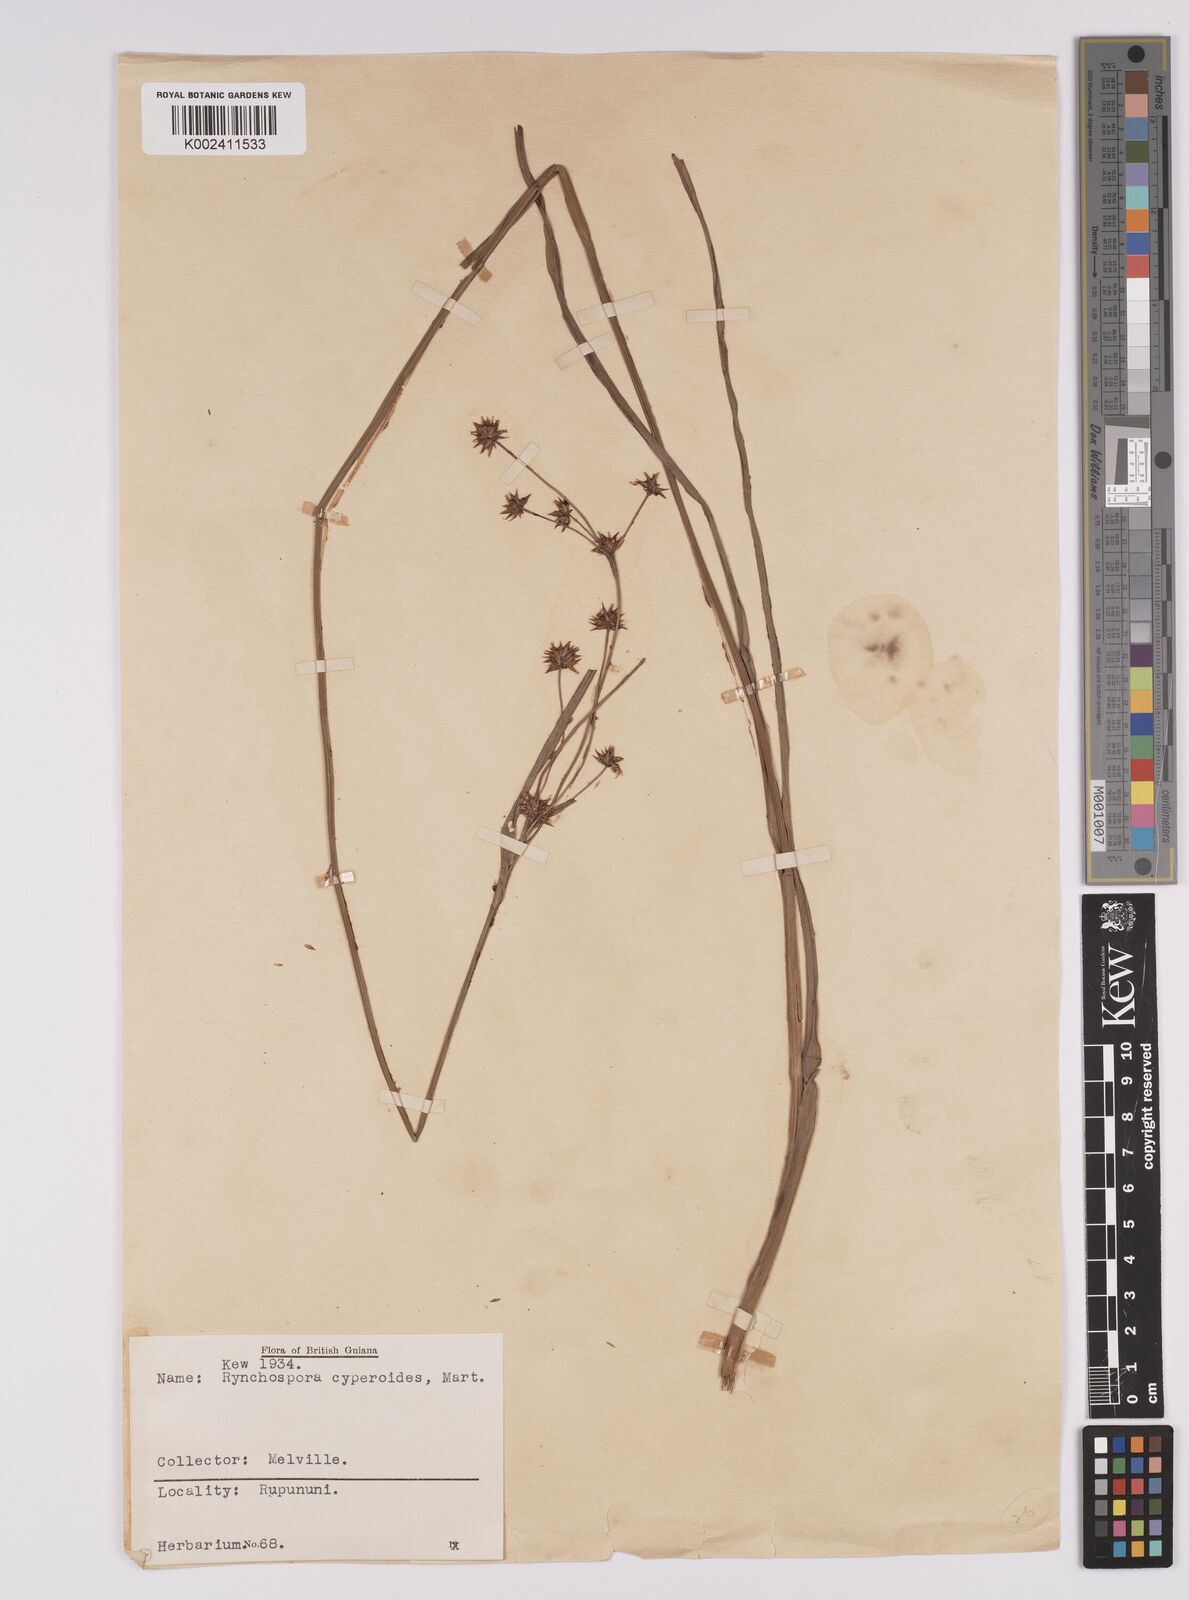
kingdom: Plantae
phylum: Tracheophyta
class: Liliopsida
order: Poales
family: Cyperaceae
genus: Rhynchospora
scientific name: Rhynchospora holoschoenoides
